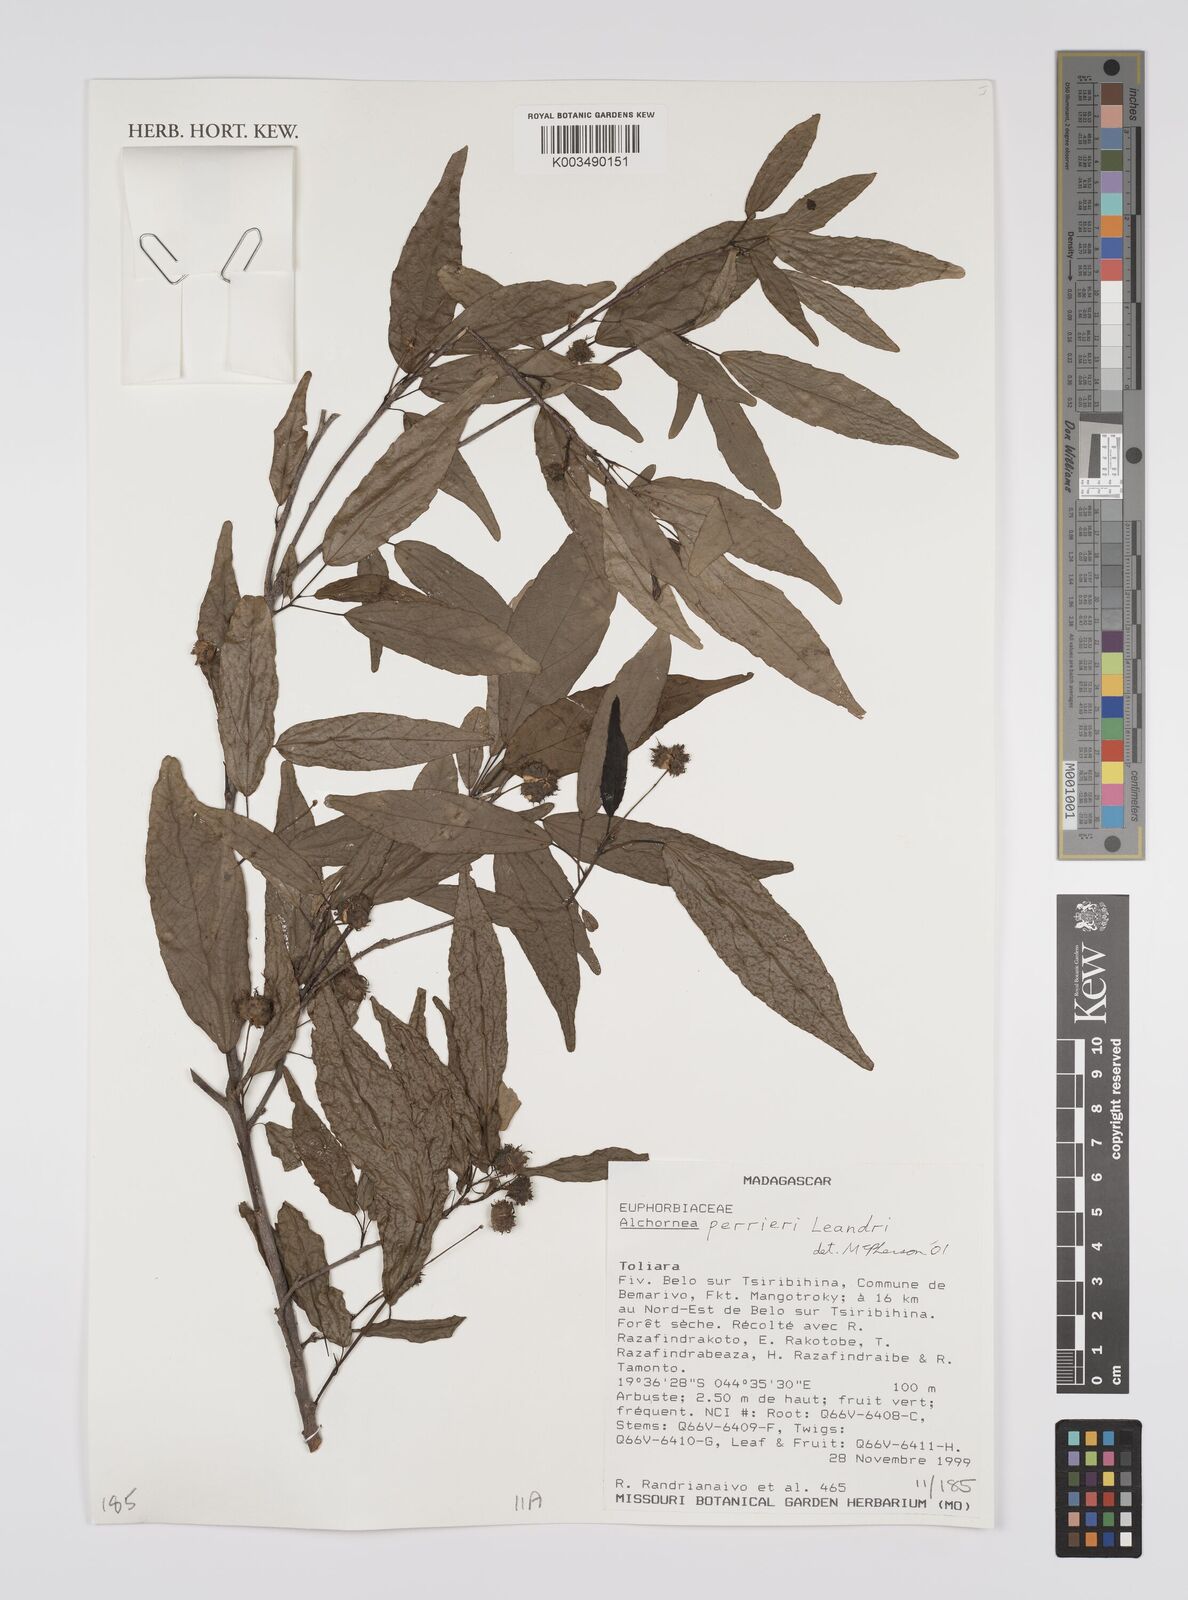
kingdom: Plantae
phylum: Tracheophyta
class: Magnoliopsida
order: Malpighiales
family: Euphorbiaceae
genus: Alchornea
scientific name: Alchornea perrieri
